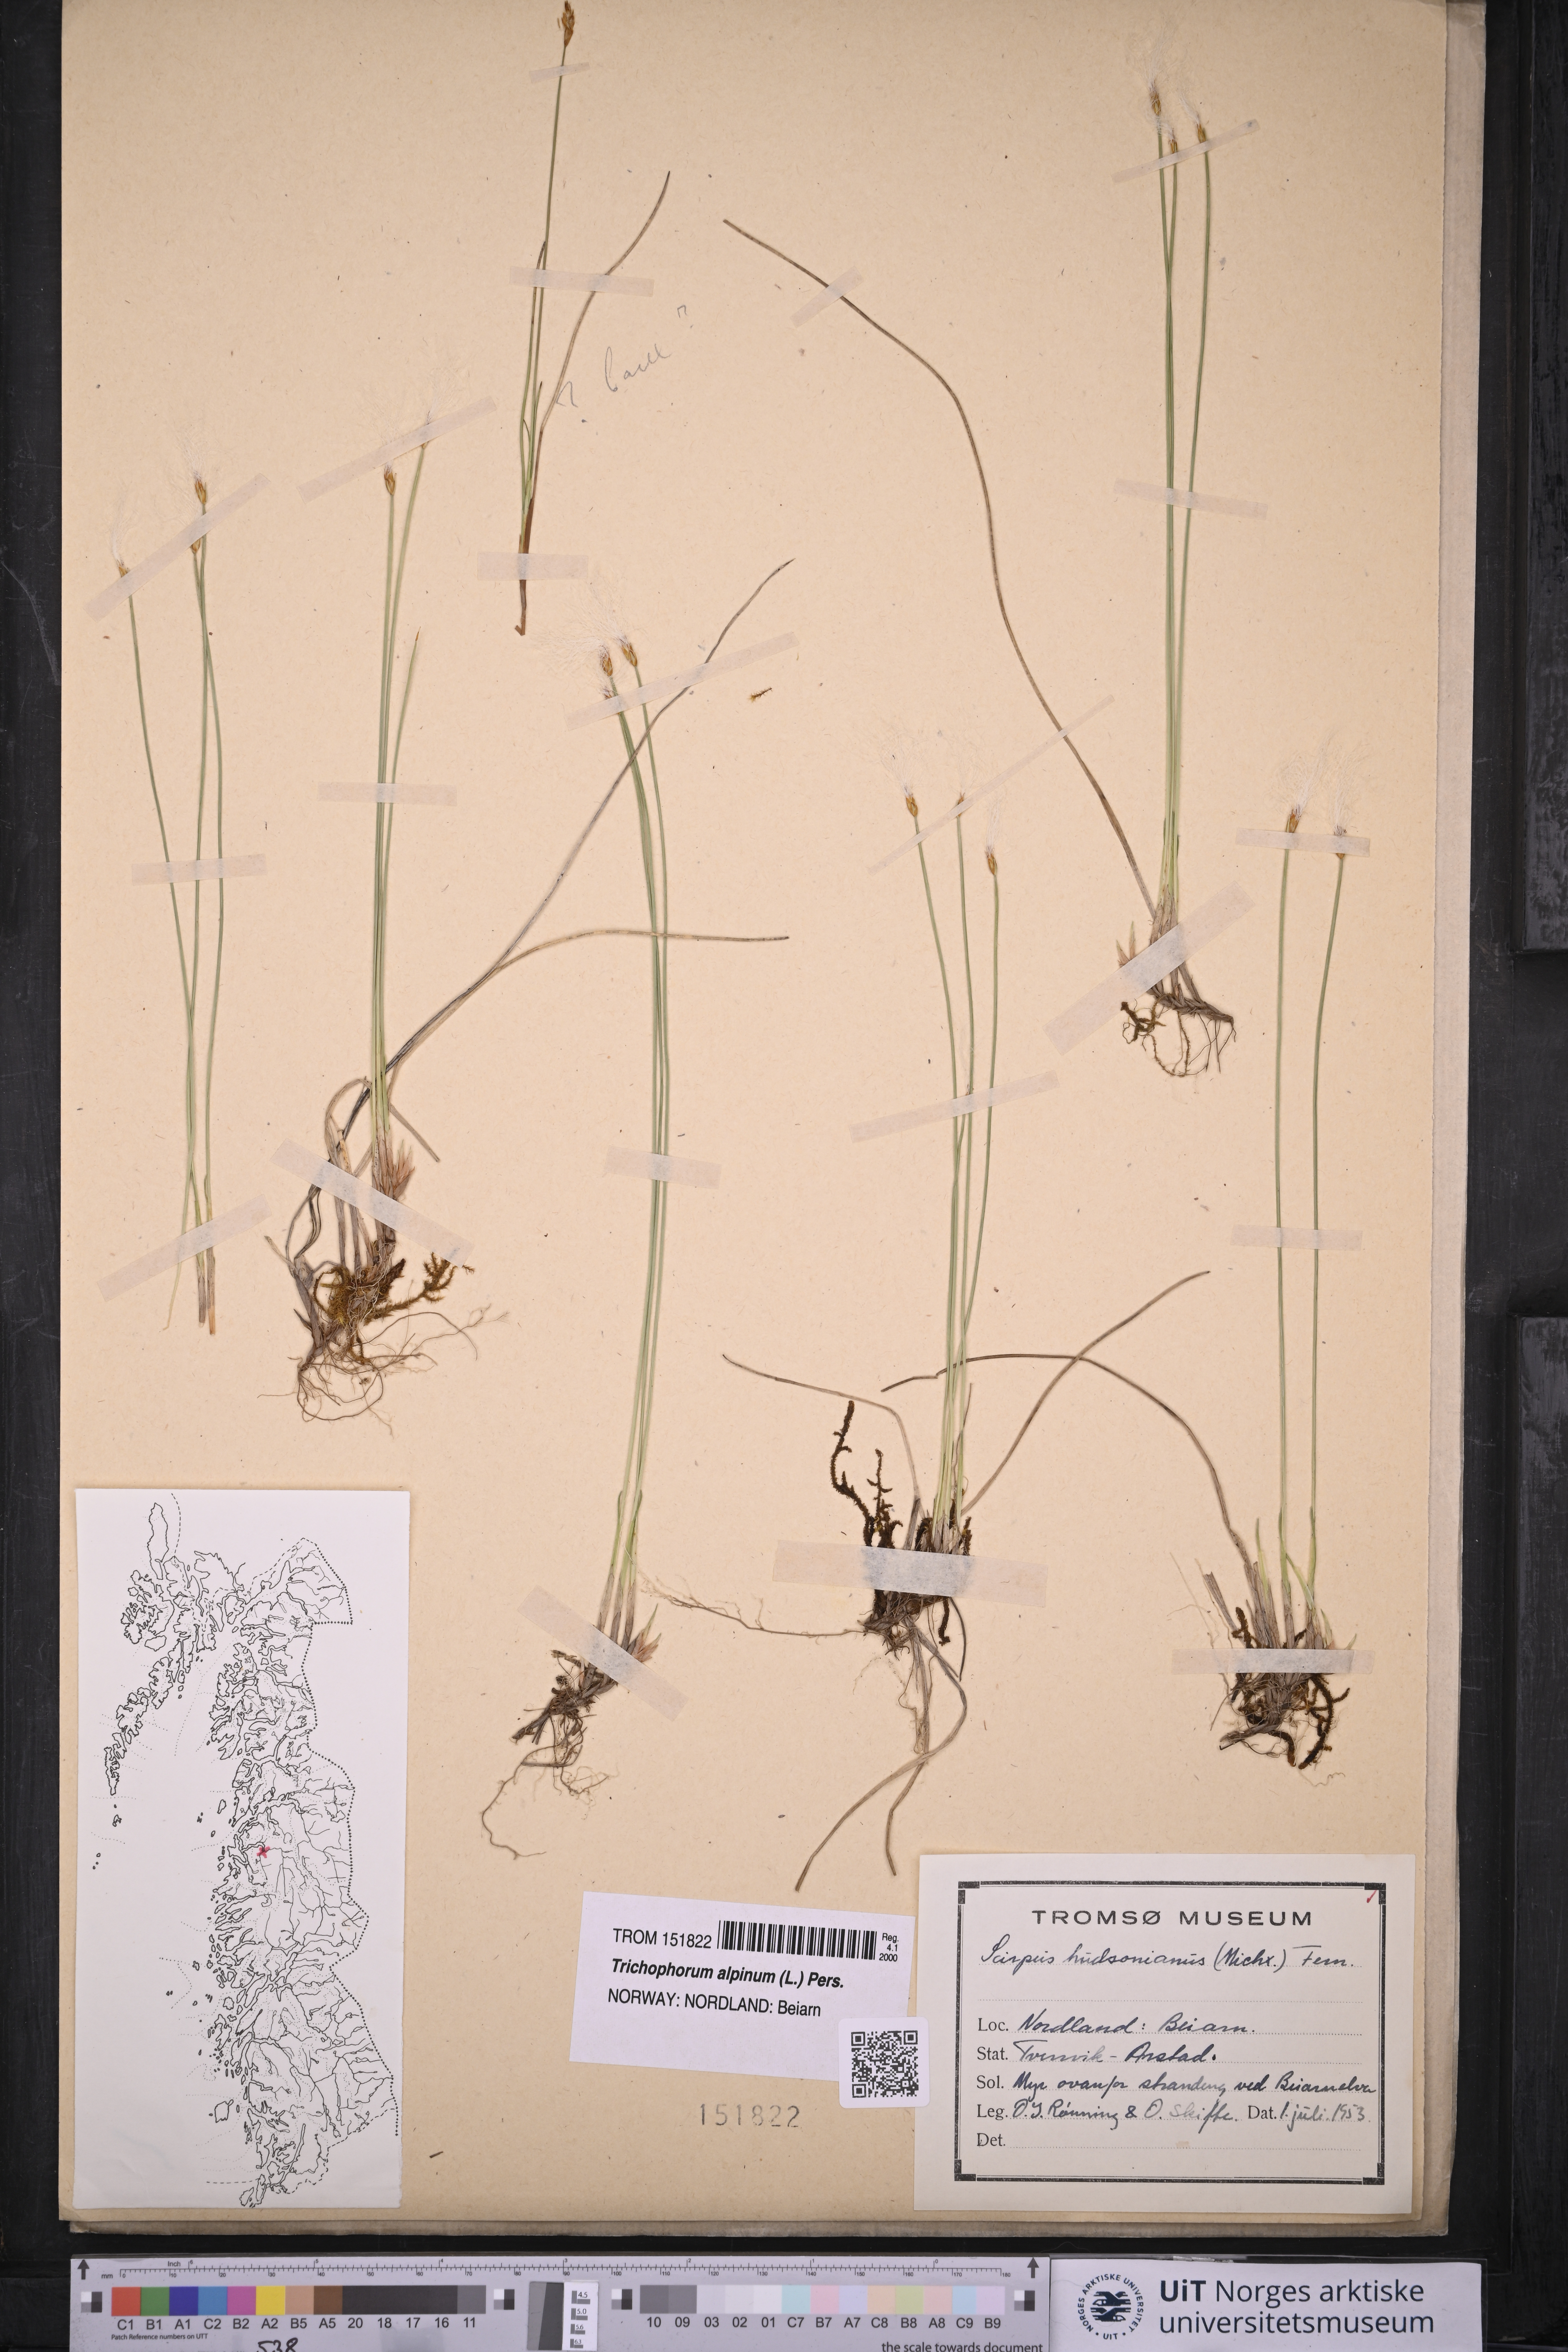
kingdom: Plantae
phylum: Tracheophyta
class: Liliopsida
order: Poales
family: Cyperaceae
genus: Trichophorum
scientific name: Trichophorum alpinum
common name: Alpine bulrush
